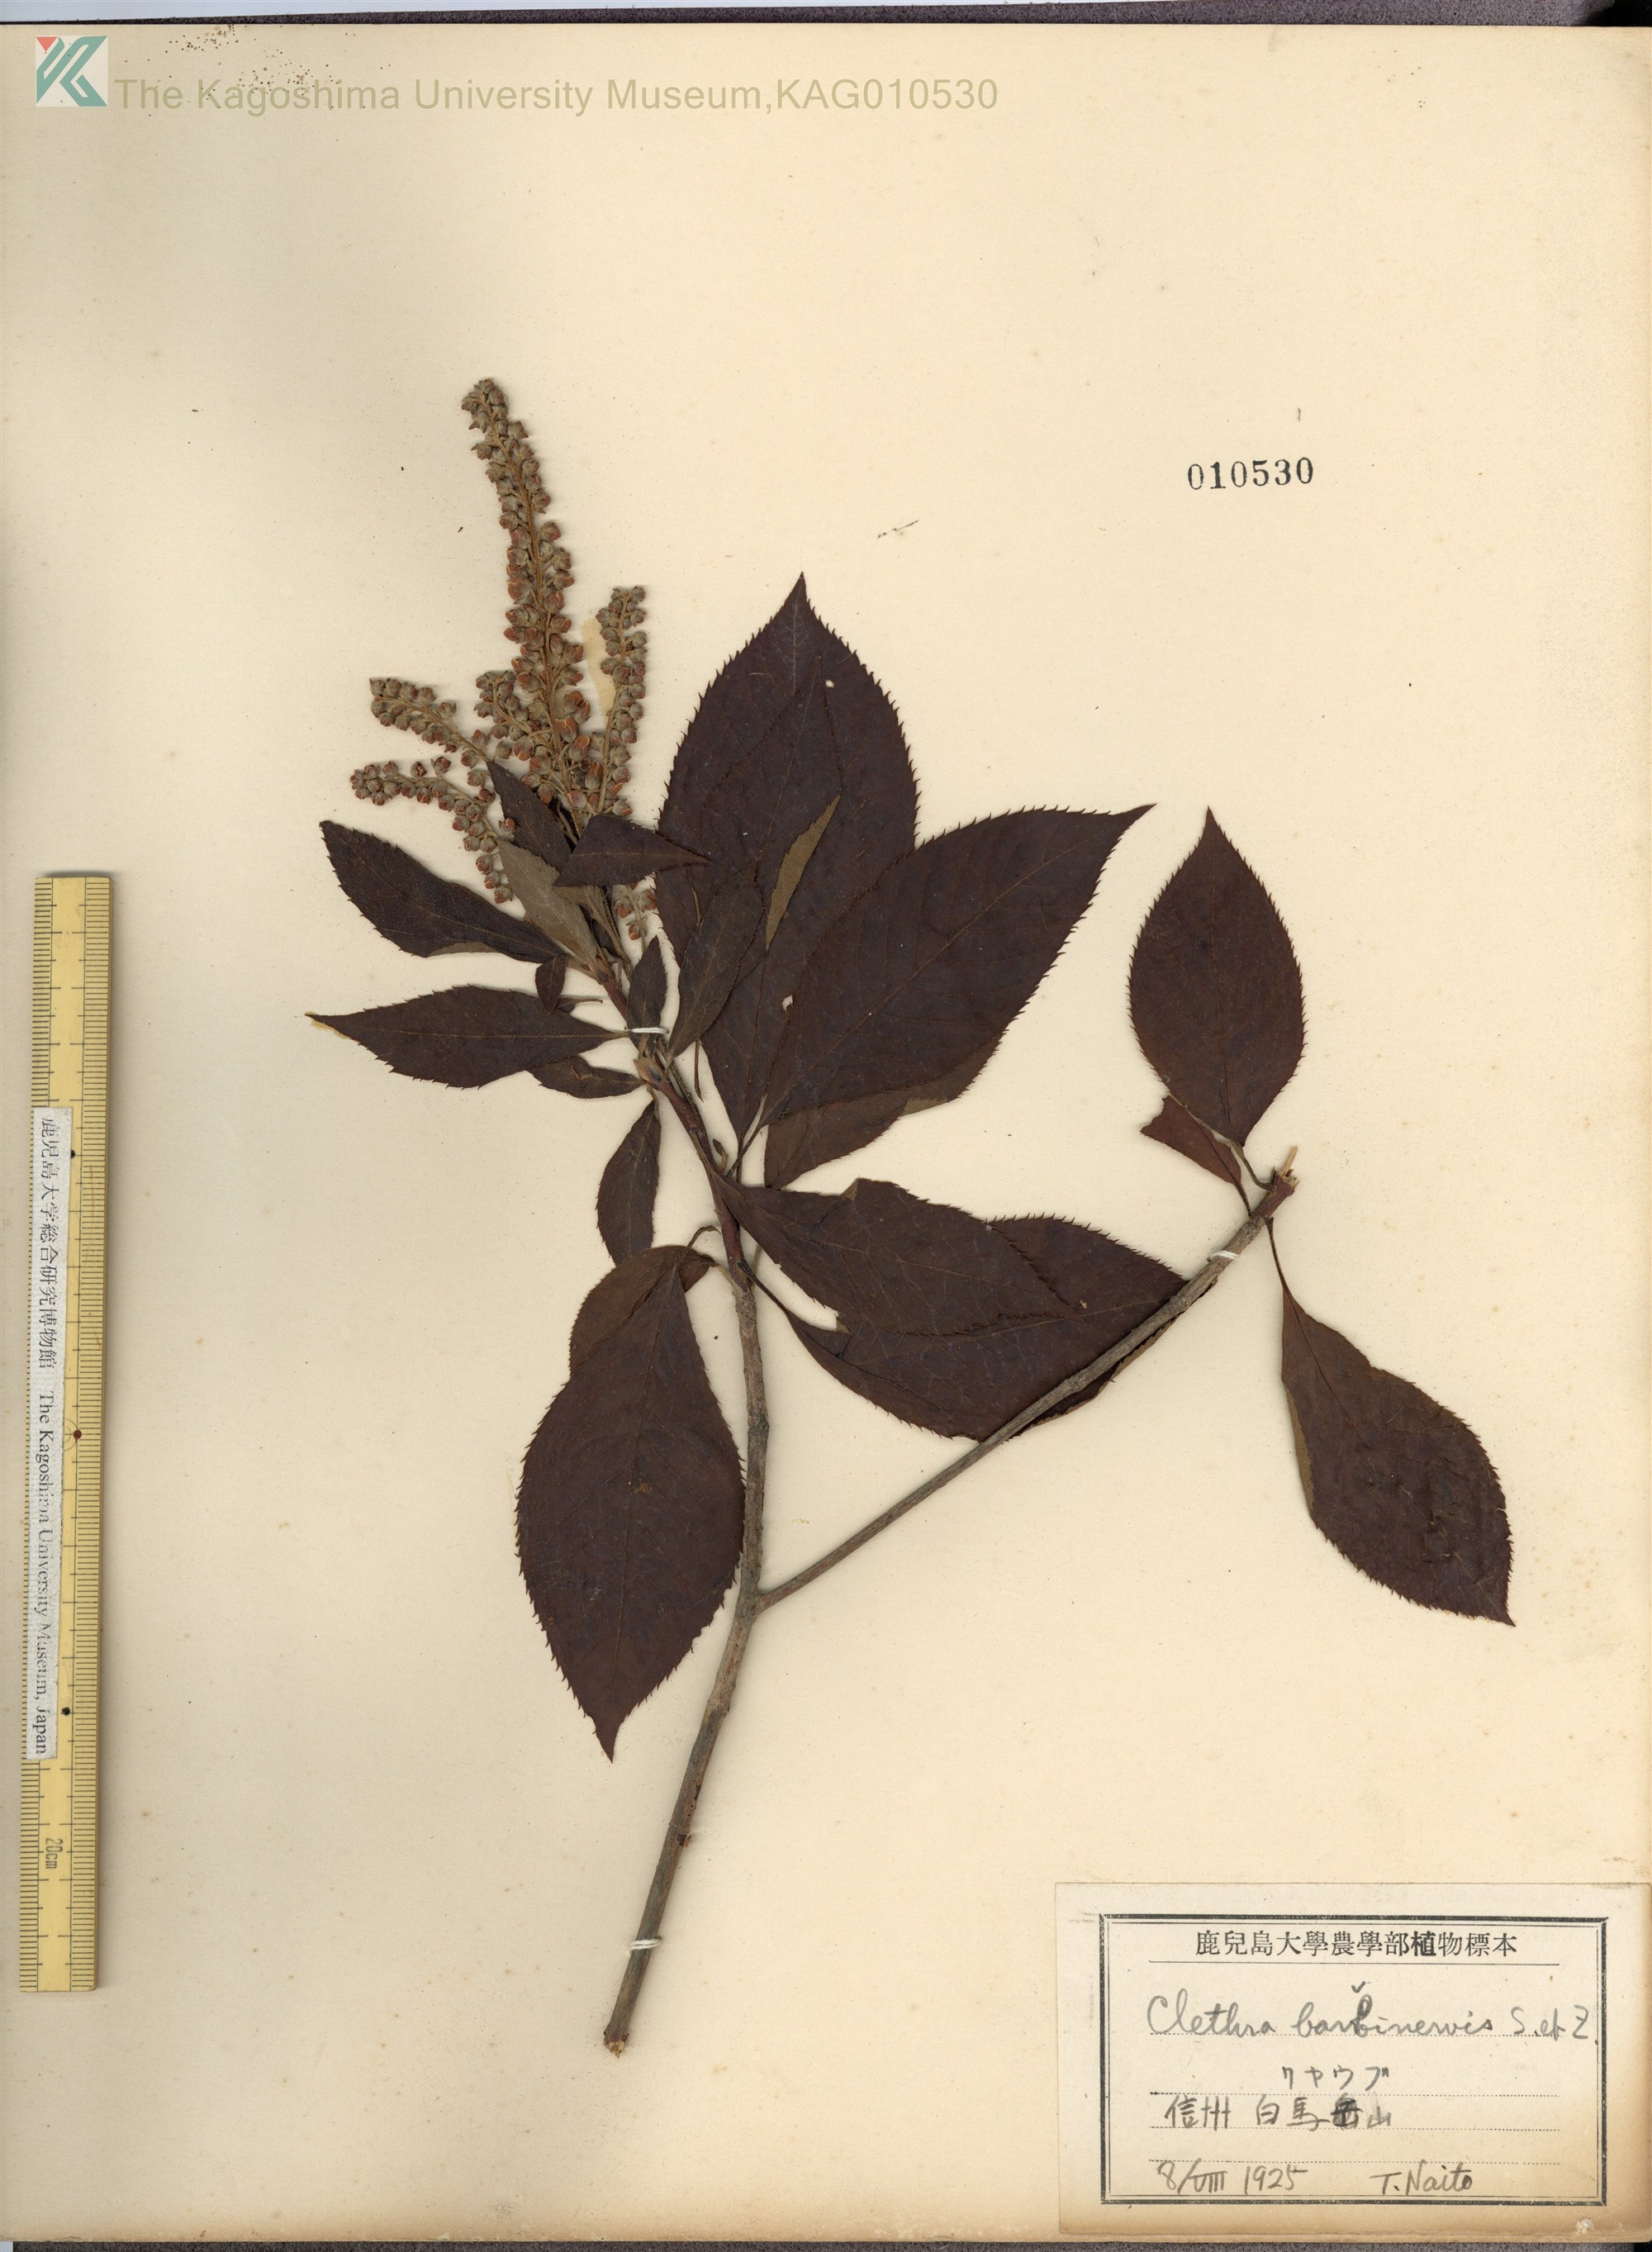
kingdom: Plantae
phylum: Tracheophyta
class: Magnoliopsida
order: Ericales
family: Clethraceae
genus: Clethra
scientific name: Clethra barbinervis
